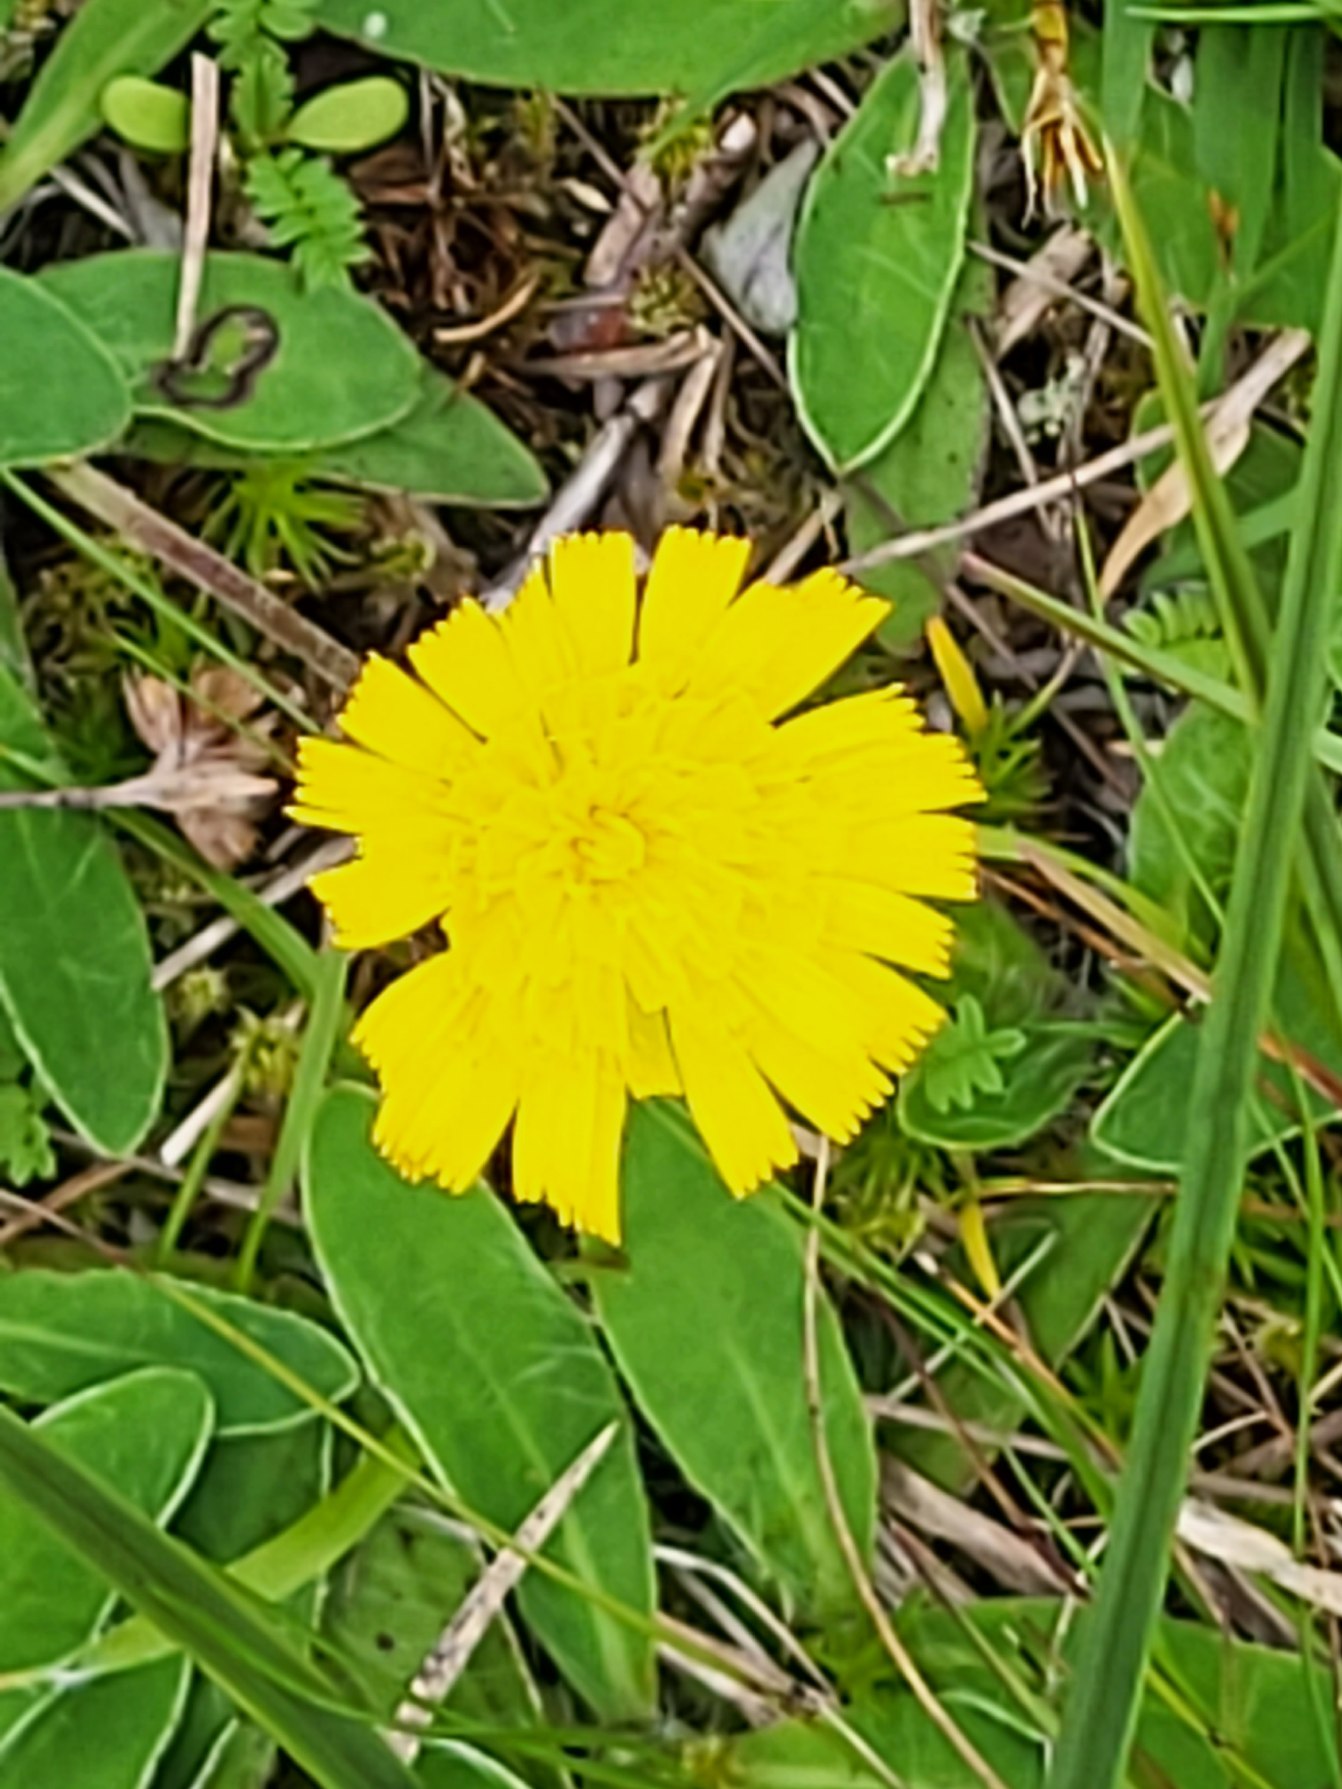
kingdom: Plantae
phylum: Tracheophyta
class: Magnoliopsida
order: Asterales
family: Asteraceae
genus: Pilosella
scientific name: Pilosella officinarum
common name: Håret høgeurt
